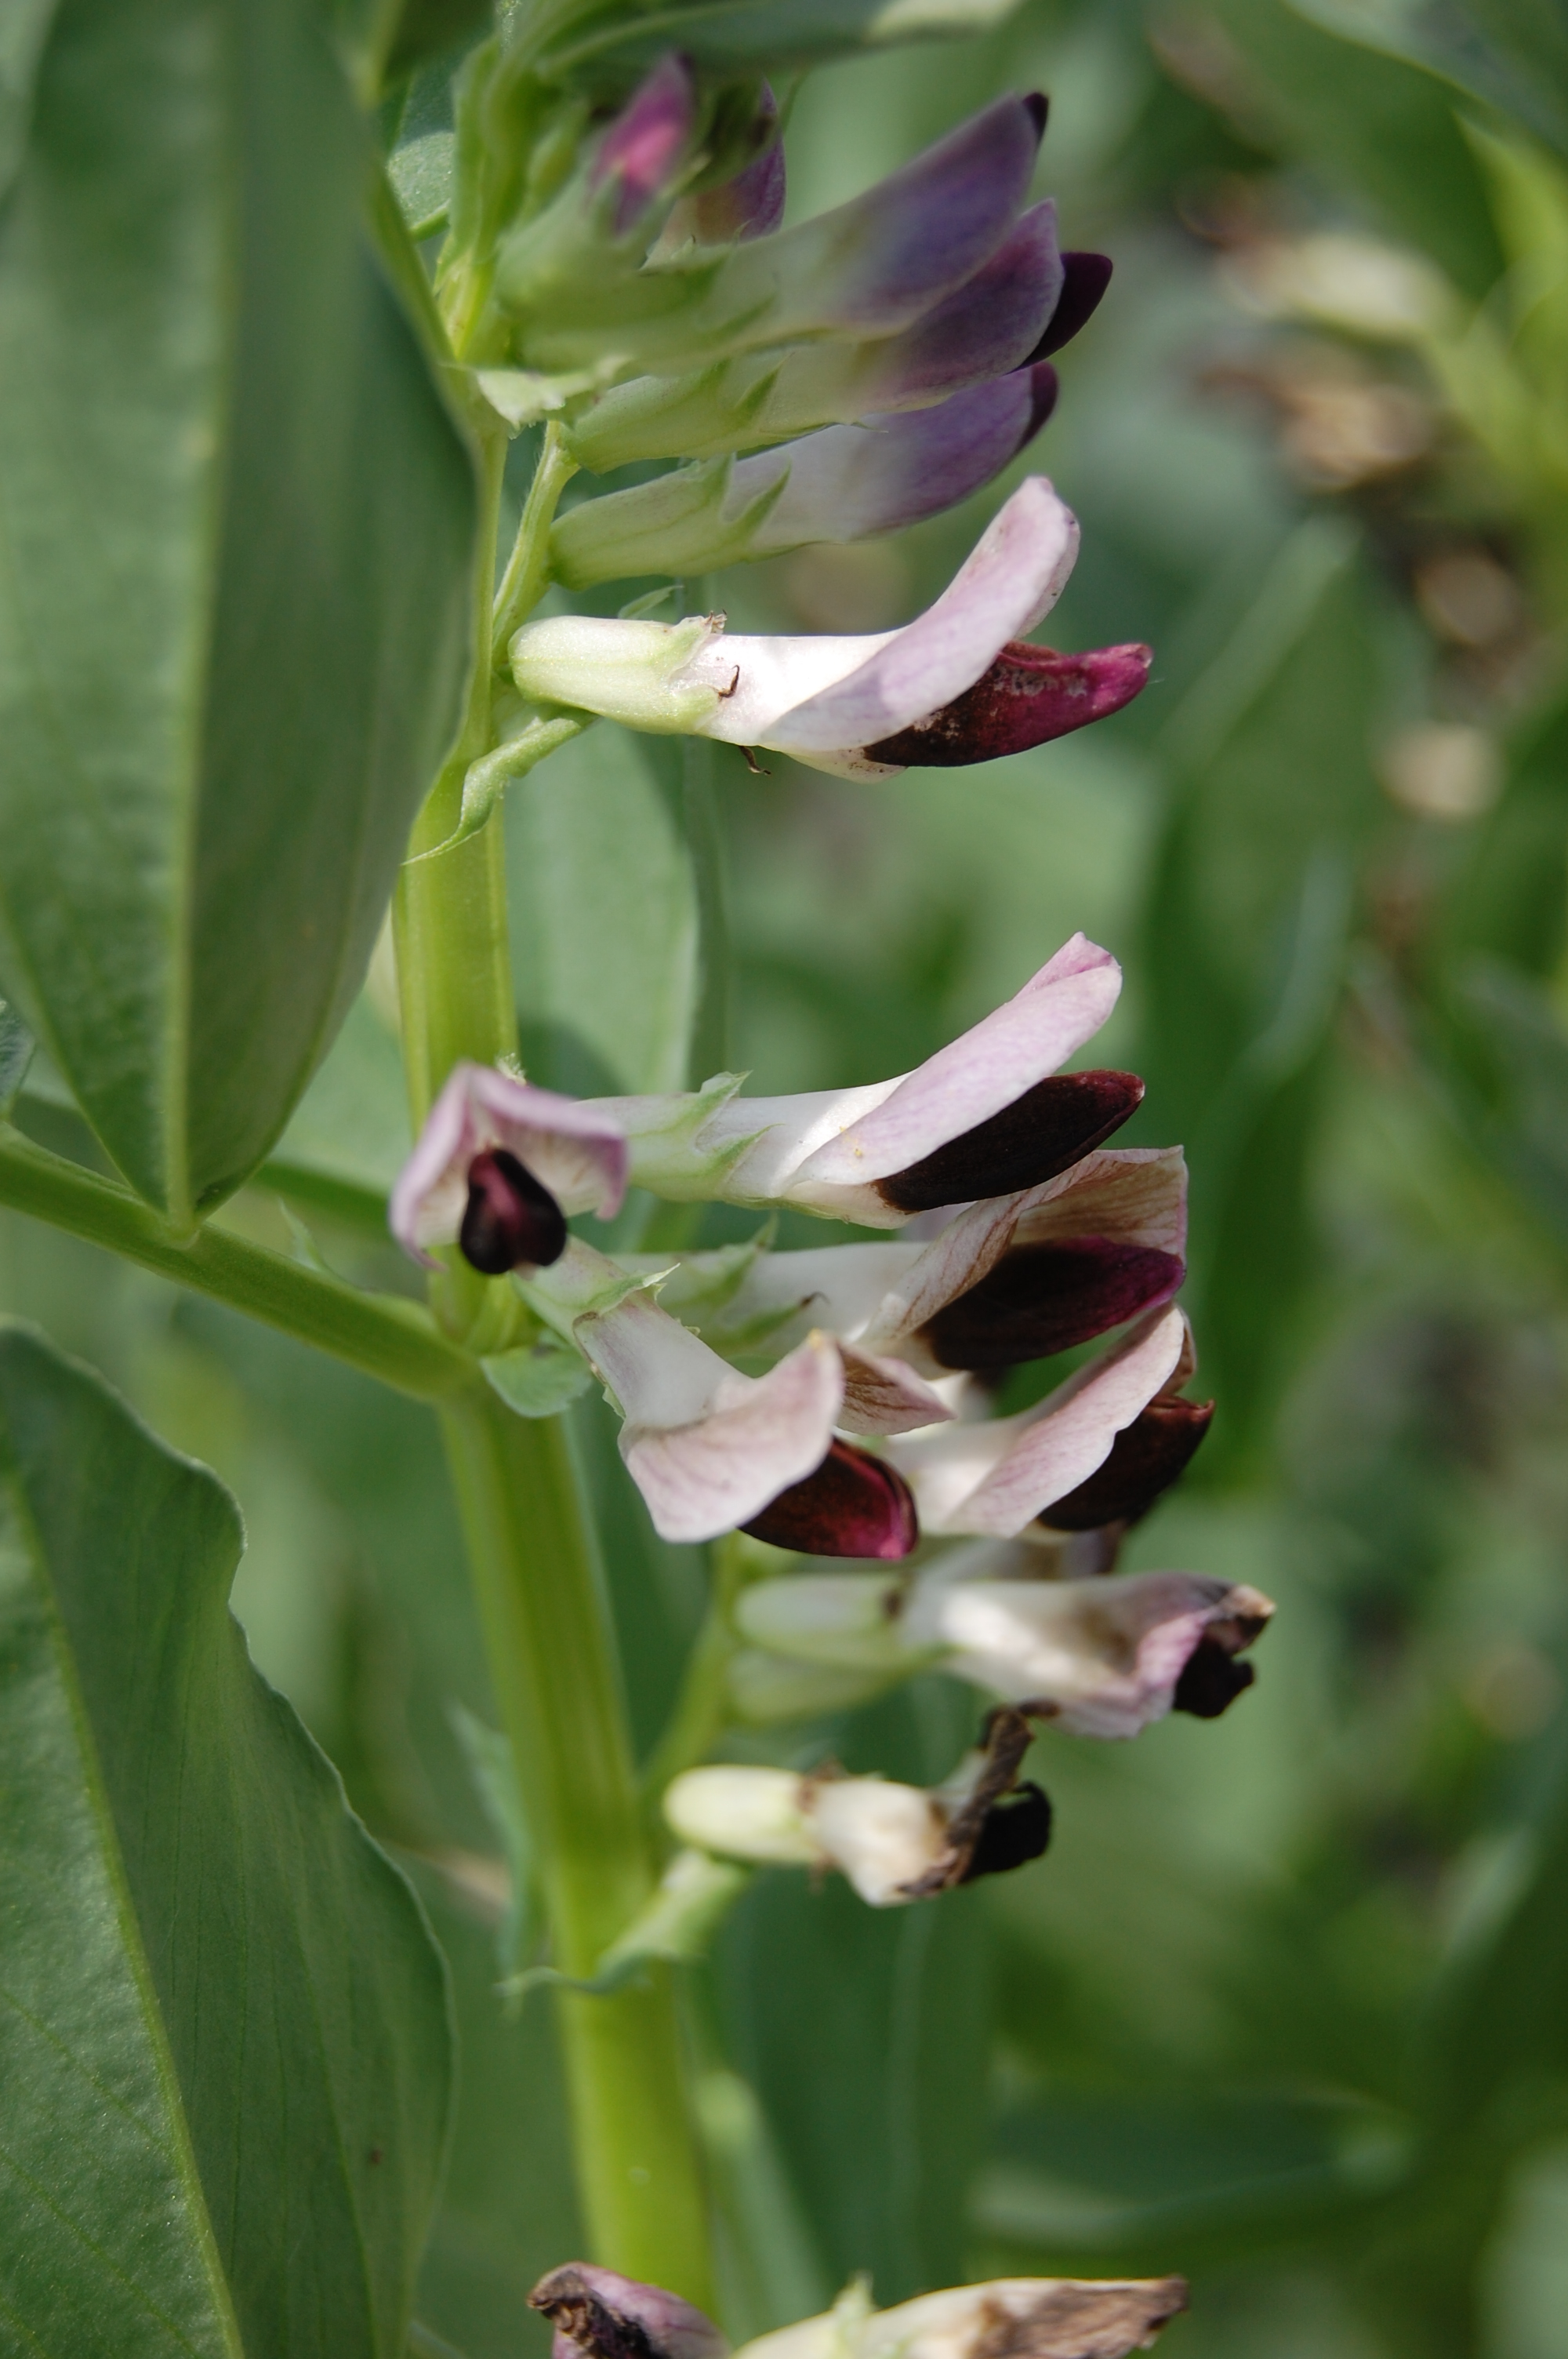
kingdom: Plantae
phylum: Tracheophyta
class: Magnoliopsida
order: Fabales
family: Fabaceae
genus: Vicia
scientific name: Vicia faba
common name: Broad bean
